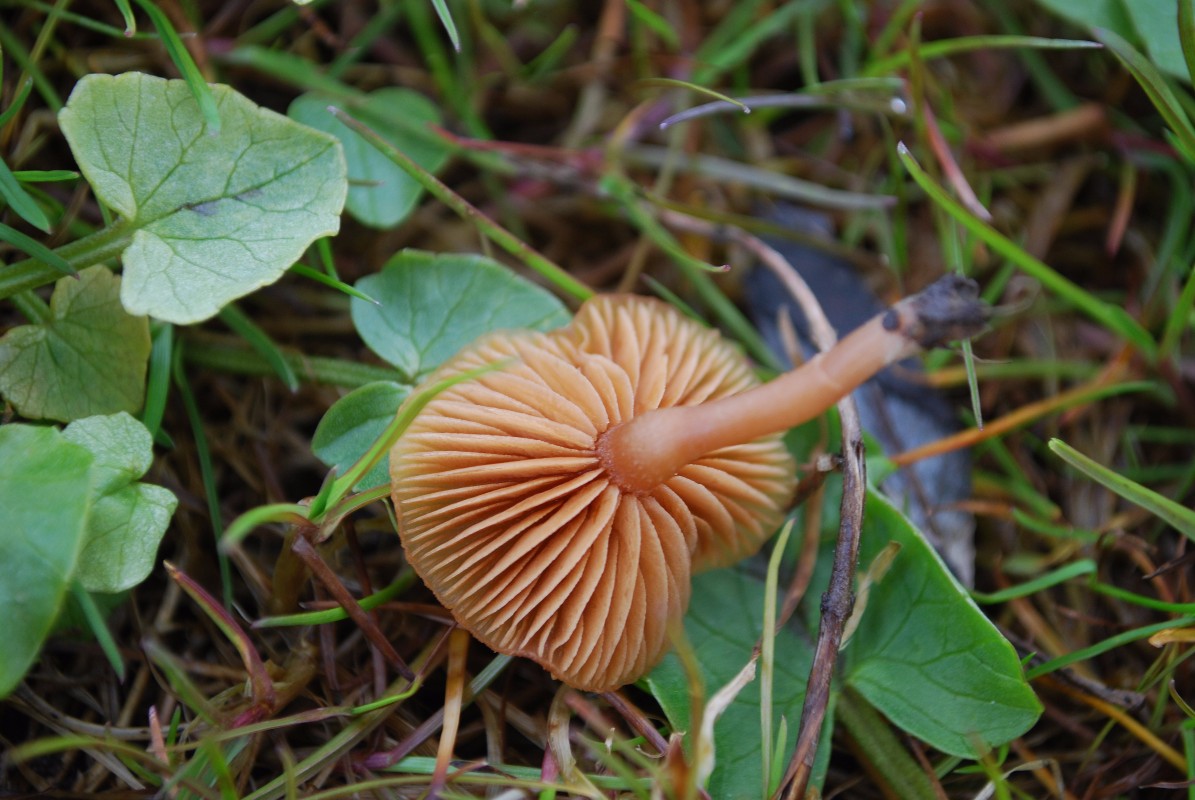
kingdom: Fungi
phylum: Basidiomycota
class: Agaricomycetes
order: Agaricales
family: Tubariaceae
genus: Tubaria
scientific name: Tubaria furfuracea
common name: kliddet fnughat
